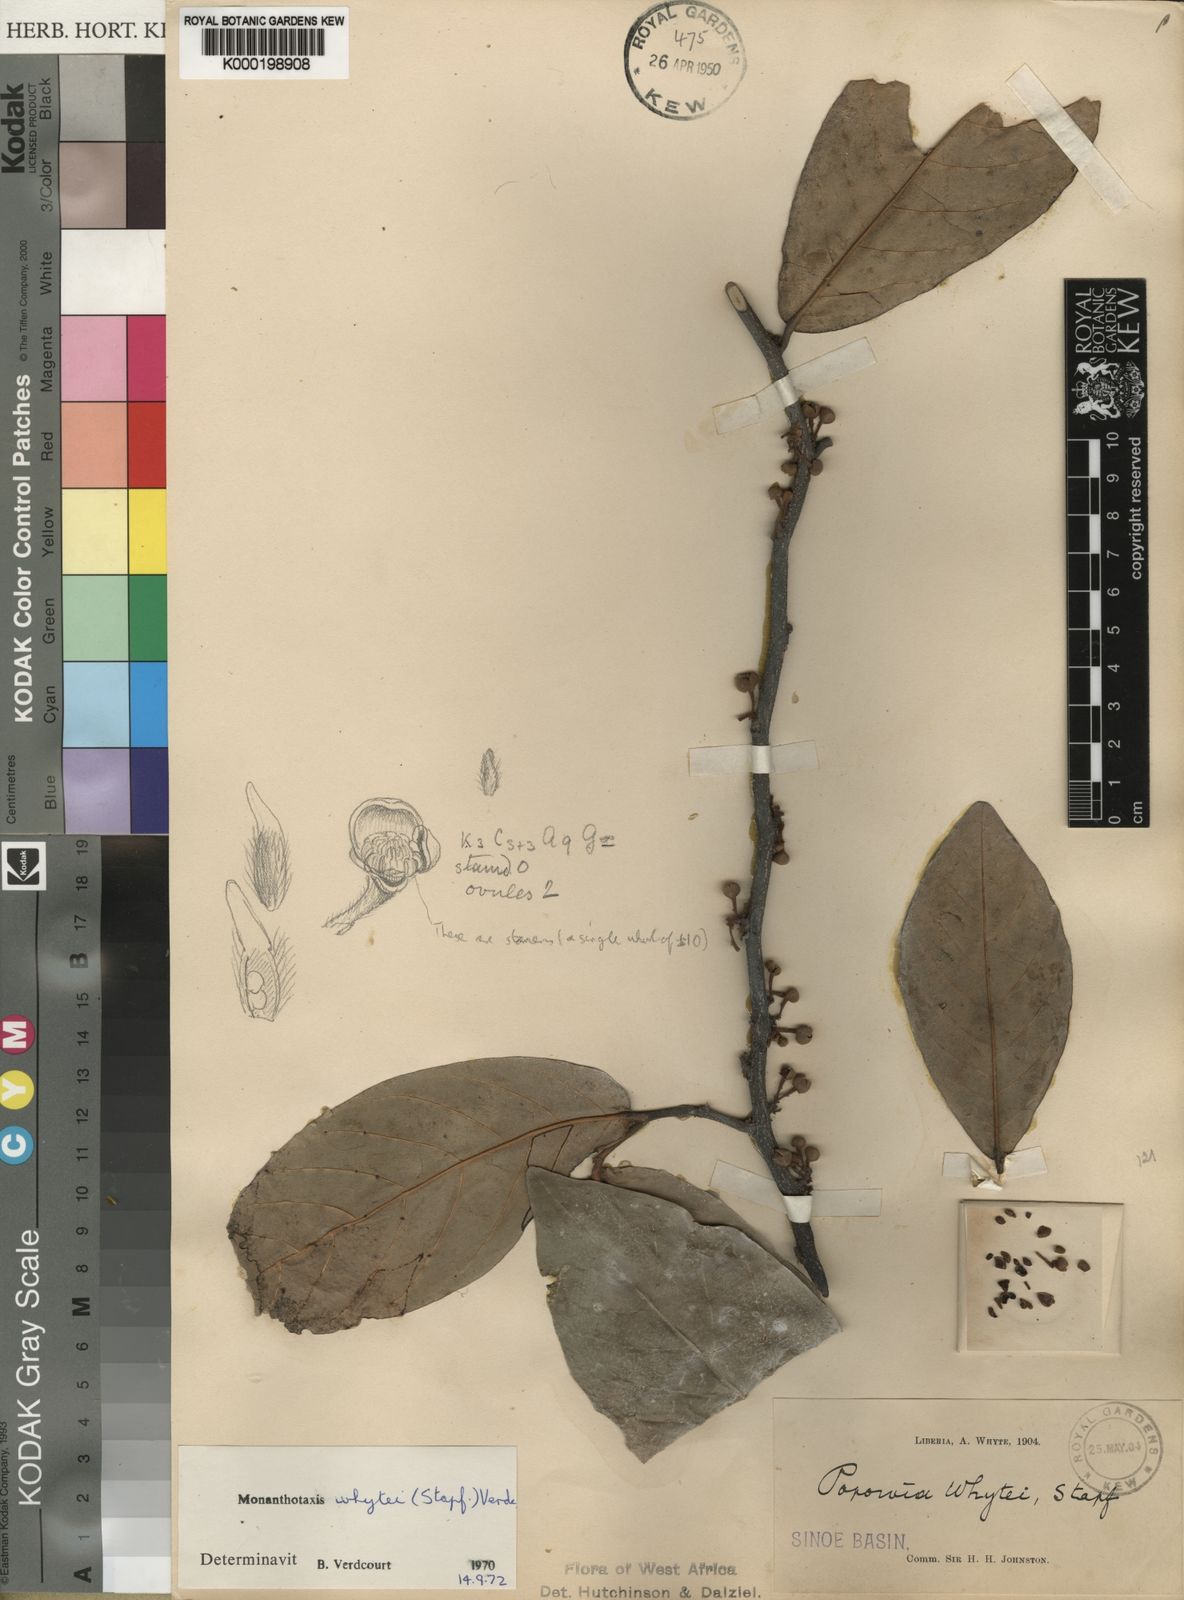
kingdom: Plantae
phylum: Tracheophyta
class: Magnoliopsida
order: Magnoliales
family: Annonaceae
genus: Monanthotaxis
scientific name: Monanthotaxis whytei
